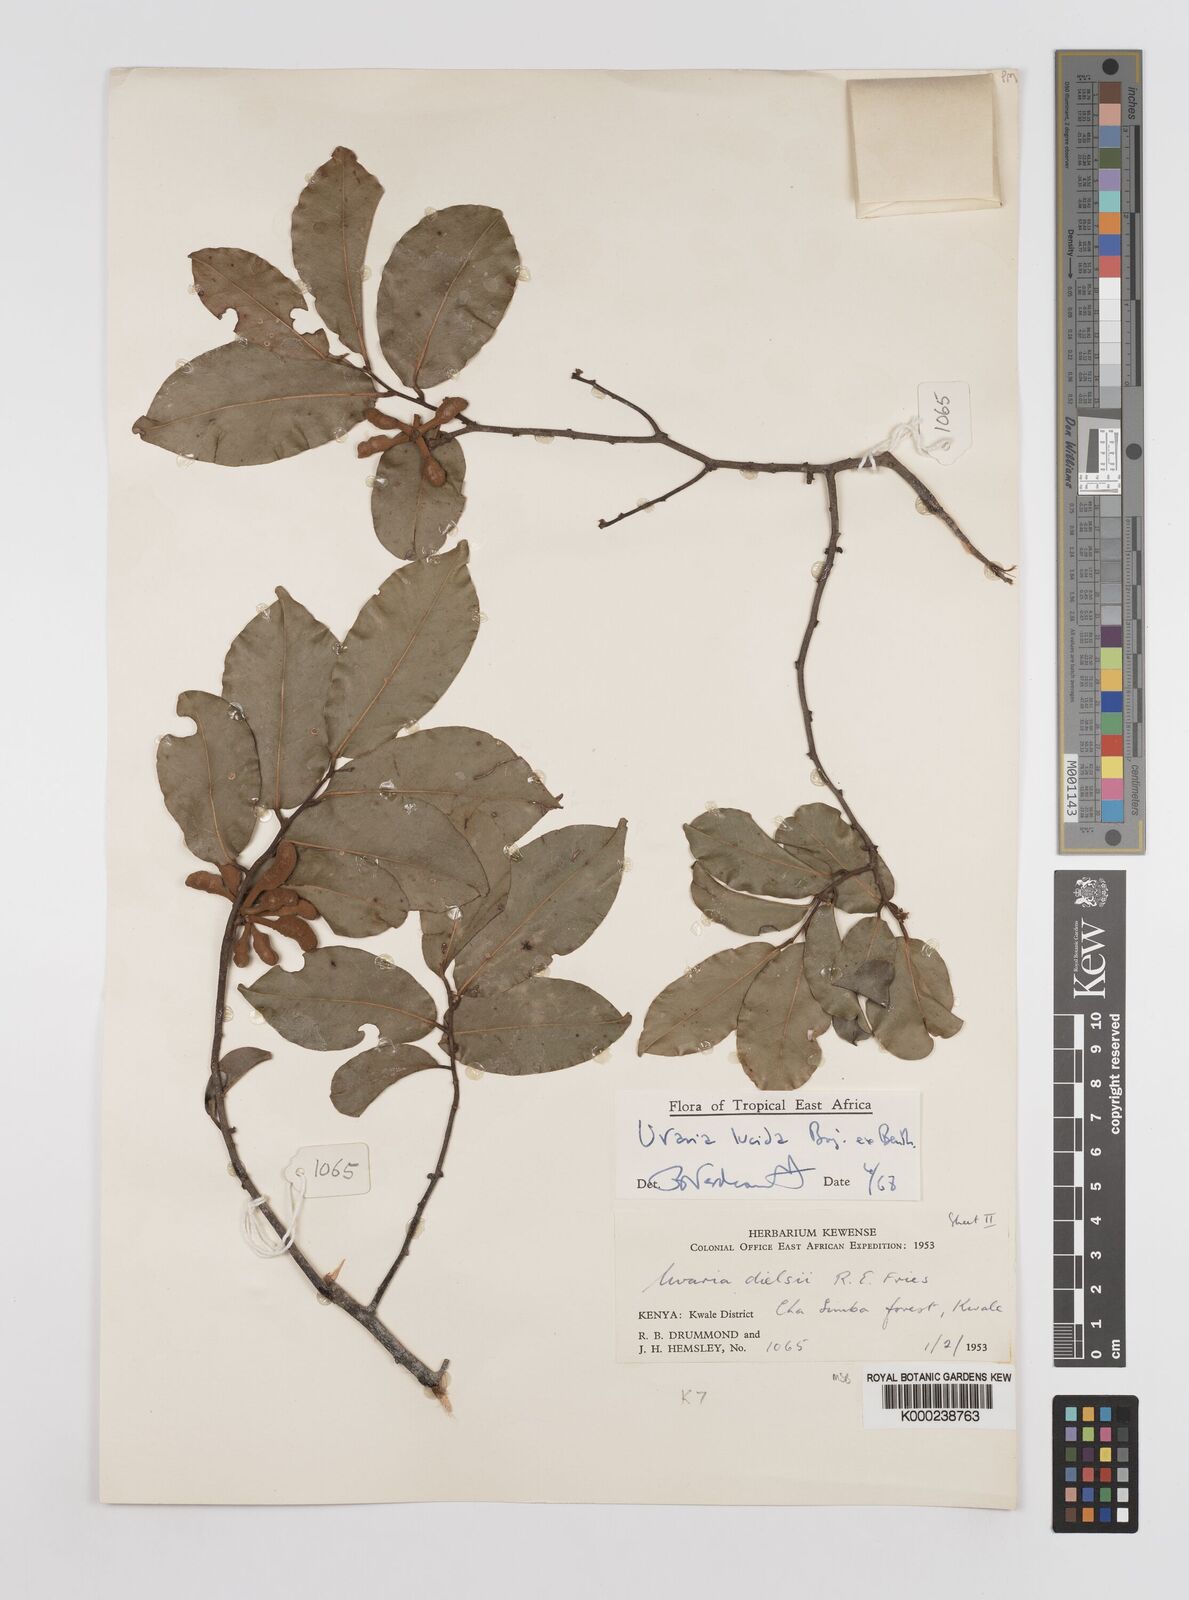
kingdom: Plantae
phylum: Tracheophyta
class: Magnoliopsida
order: Magnoliales
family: Annonaceae
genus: Uvaria
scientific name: Uvaria lucida
